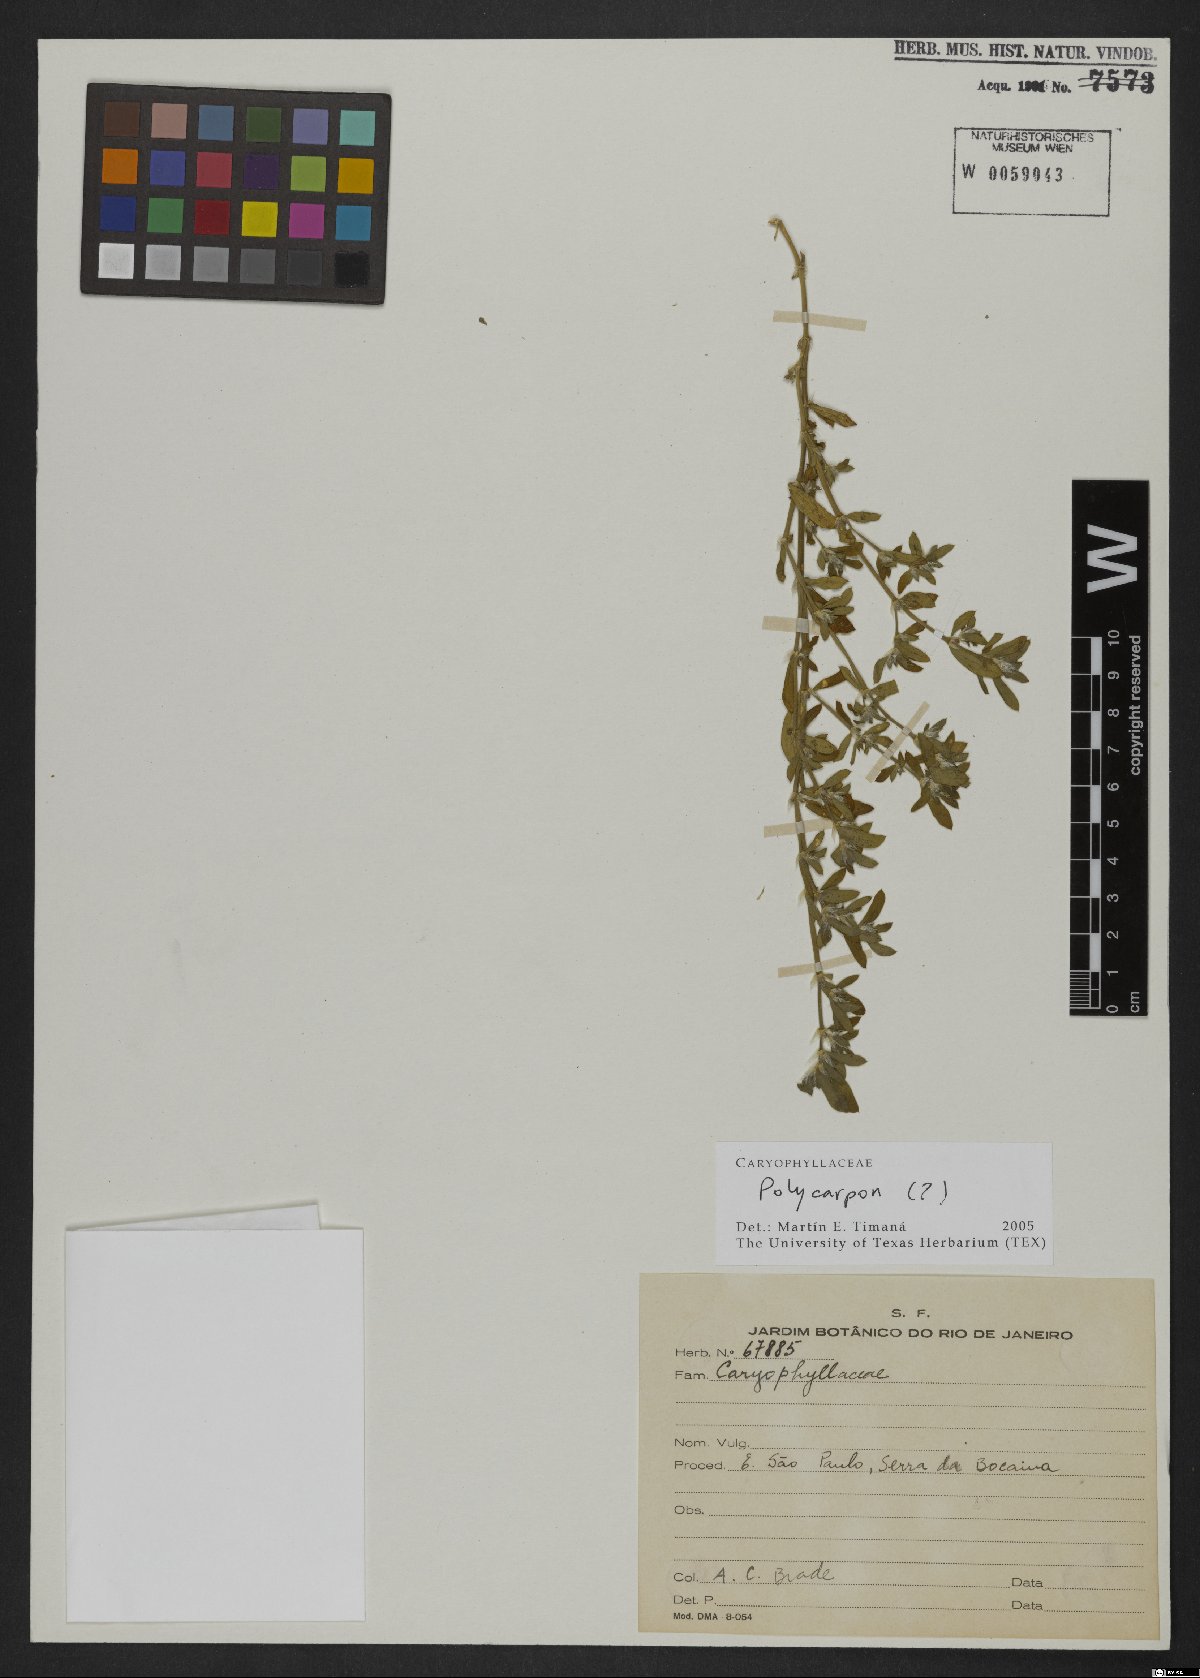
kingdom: Plantae
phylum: Tracheophyta
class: Magnoliopsida
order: Caryophyllales
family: Caryophyllaceae
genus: Polycarpon
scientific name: Polycarpon
